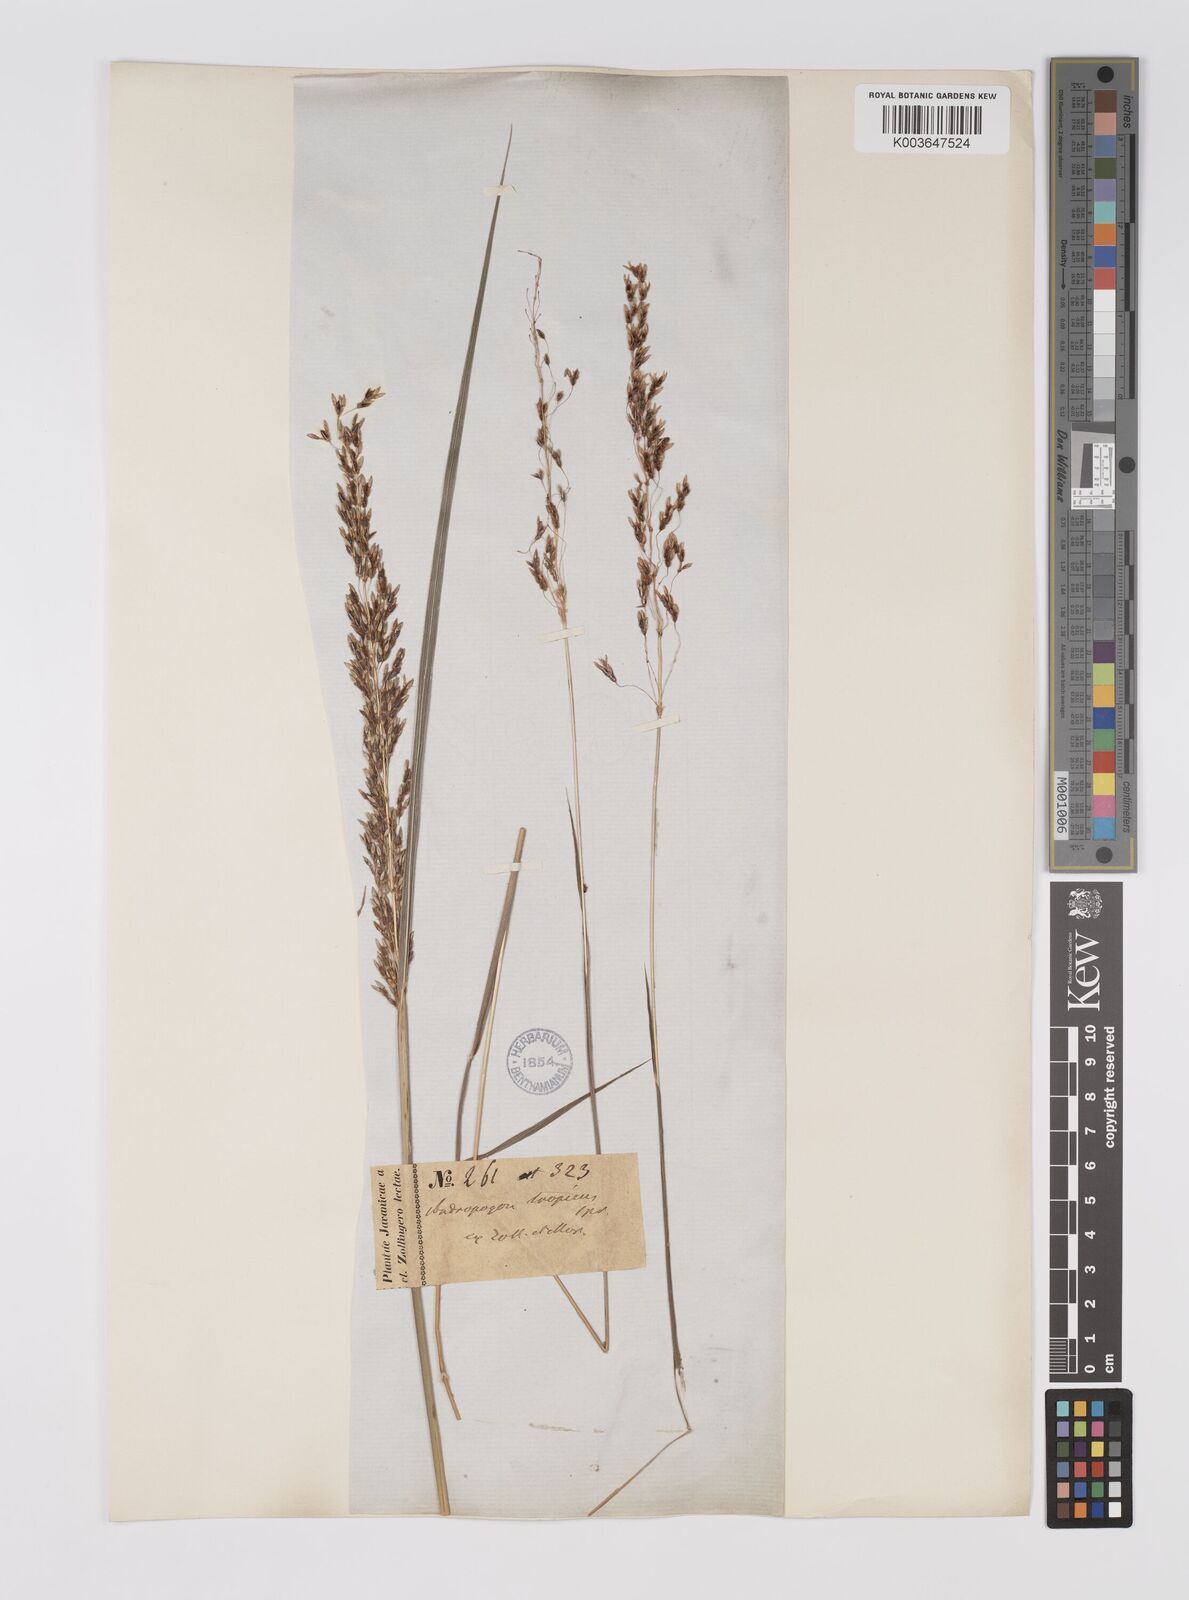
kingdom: Plantae
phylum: Tracheophyta
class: Liliopsida
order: Poales
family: Poaceae
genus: Sorghum
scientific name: Sorghum nitidum
